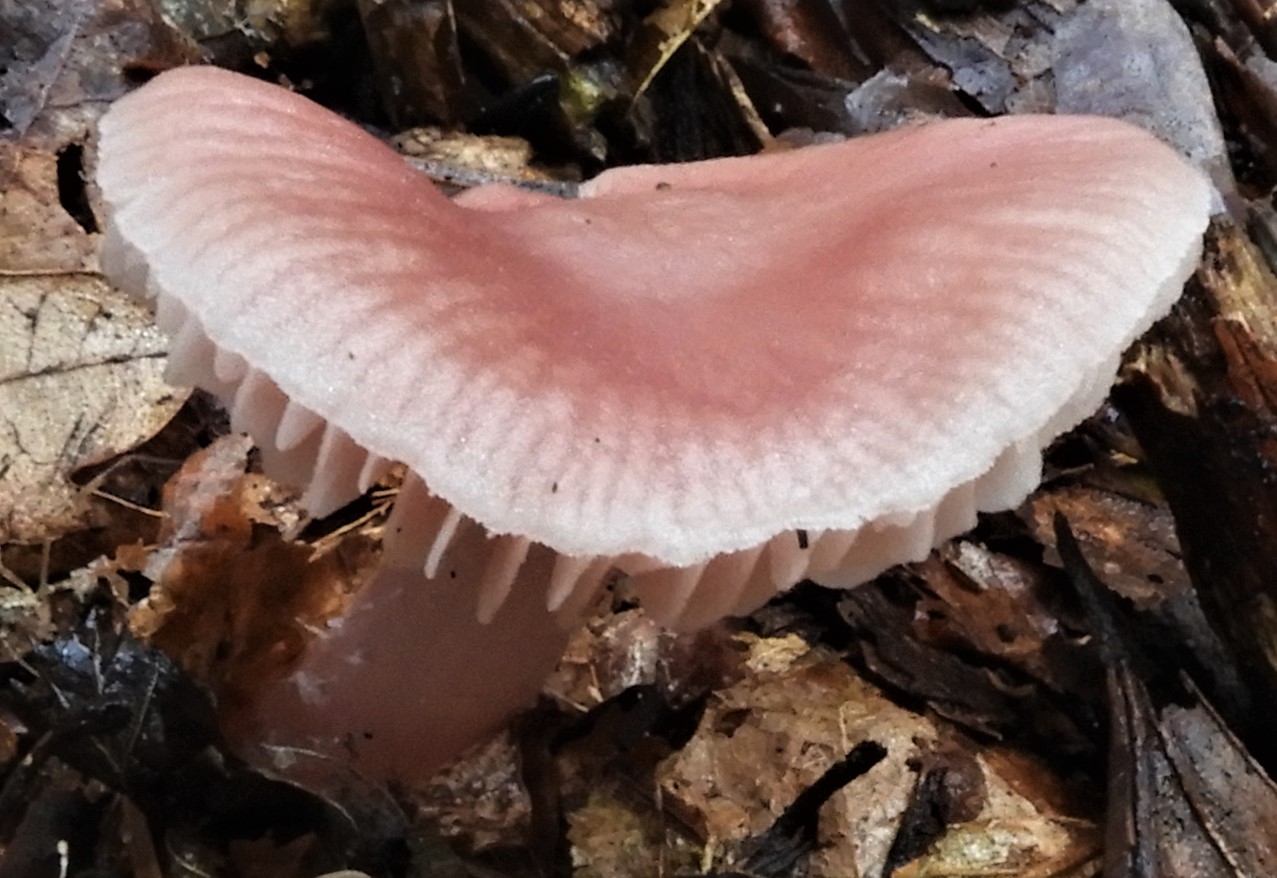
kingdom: Fungi
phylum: Basidiomycota
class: Agaricomycetes
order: Agaricales
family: Mycenaceae
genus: Mycena
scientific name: Mycena rosea
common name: rosa huesvamp
